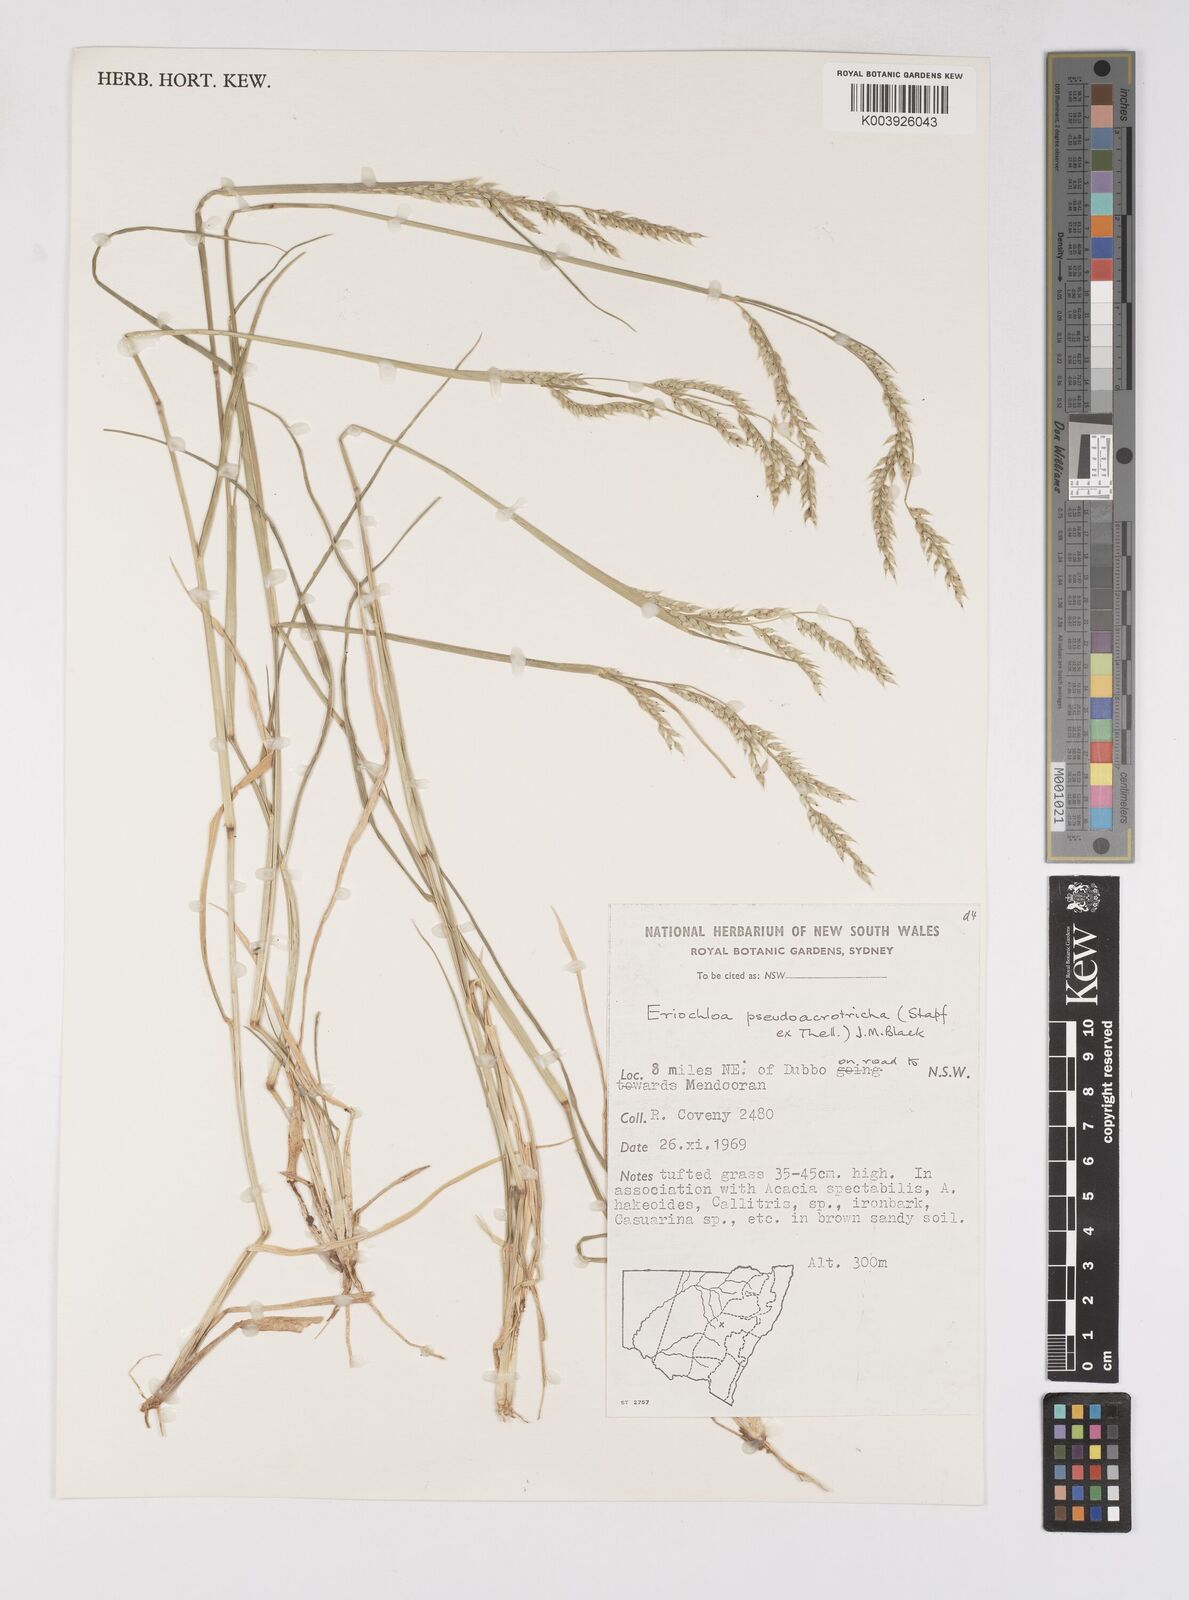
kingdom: Plantae
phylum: Tracheophyta
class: Liliopsida
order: Poales
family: Poaceae
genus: Eriochloa
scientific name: Eriochloa pseudoacrotricha
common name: Perennial cup-grass
